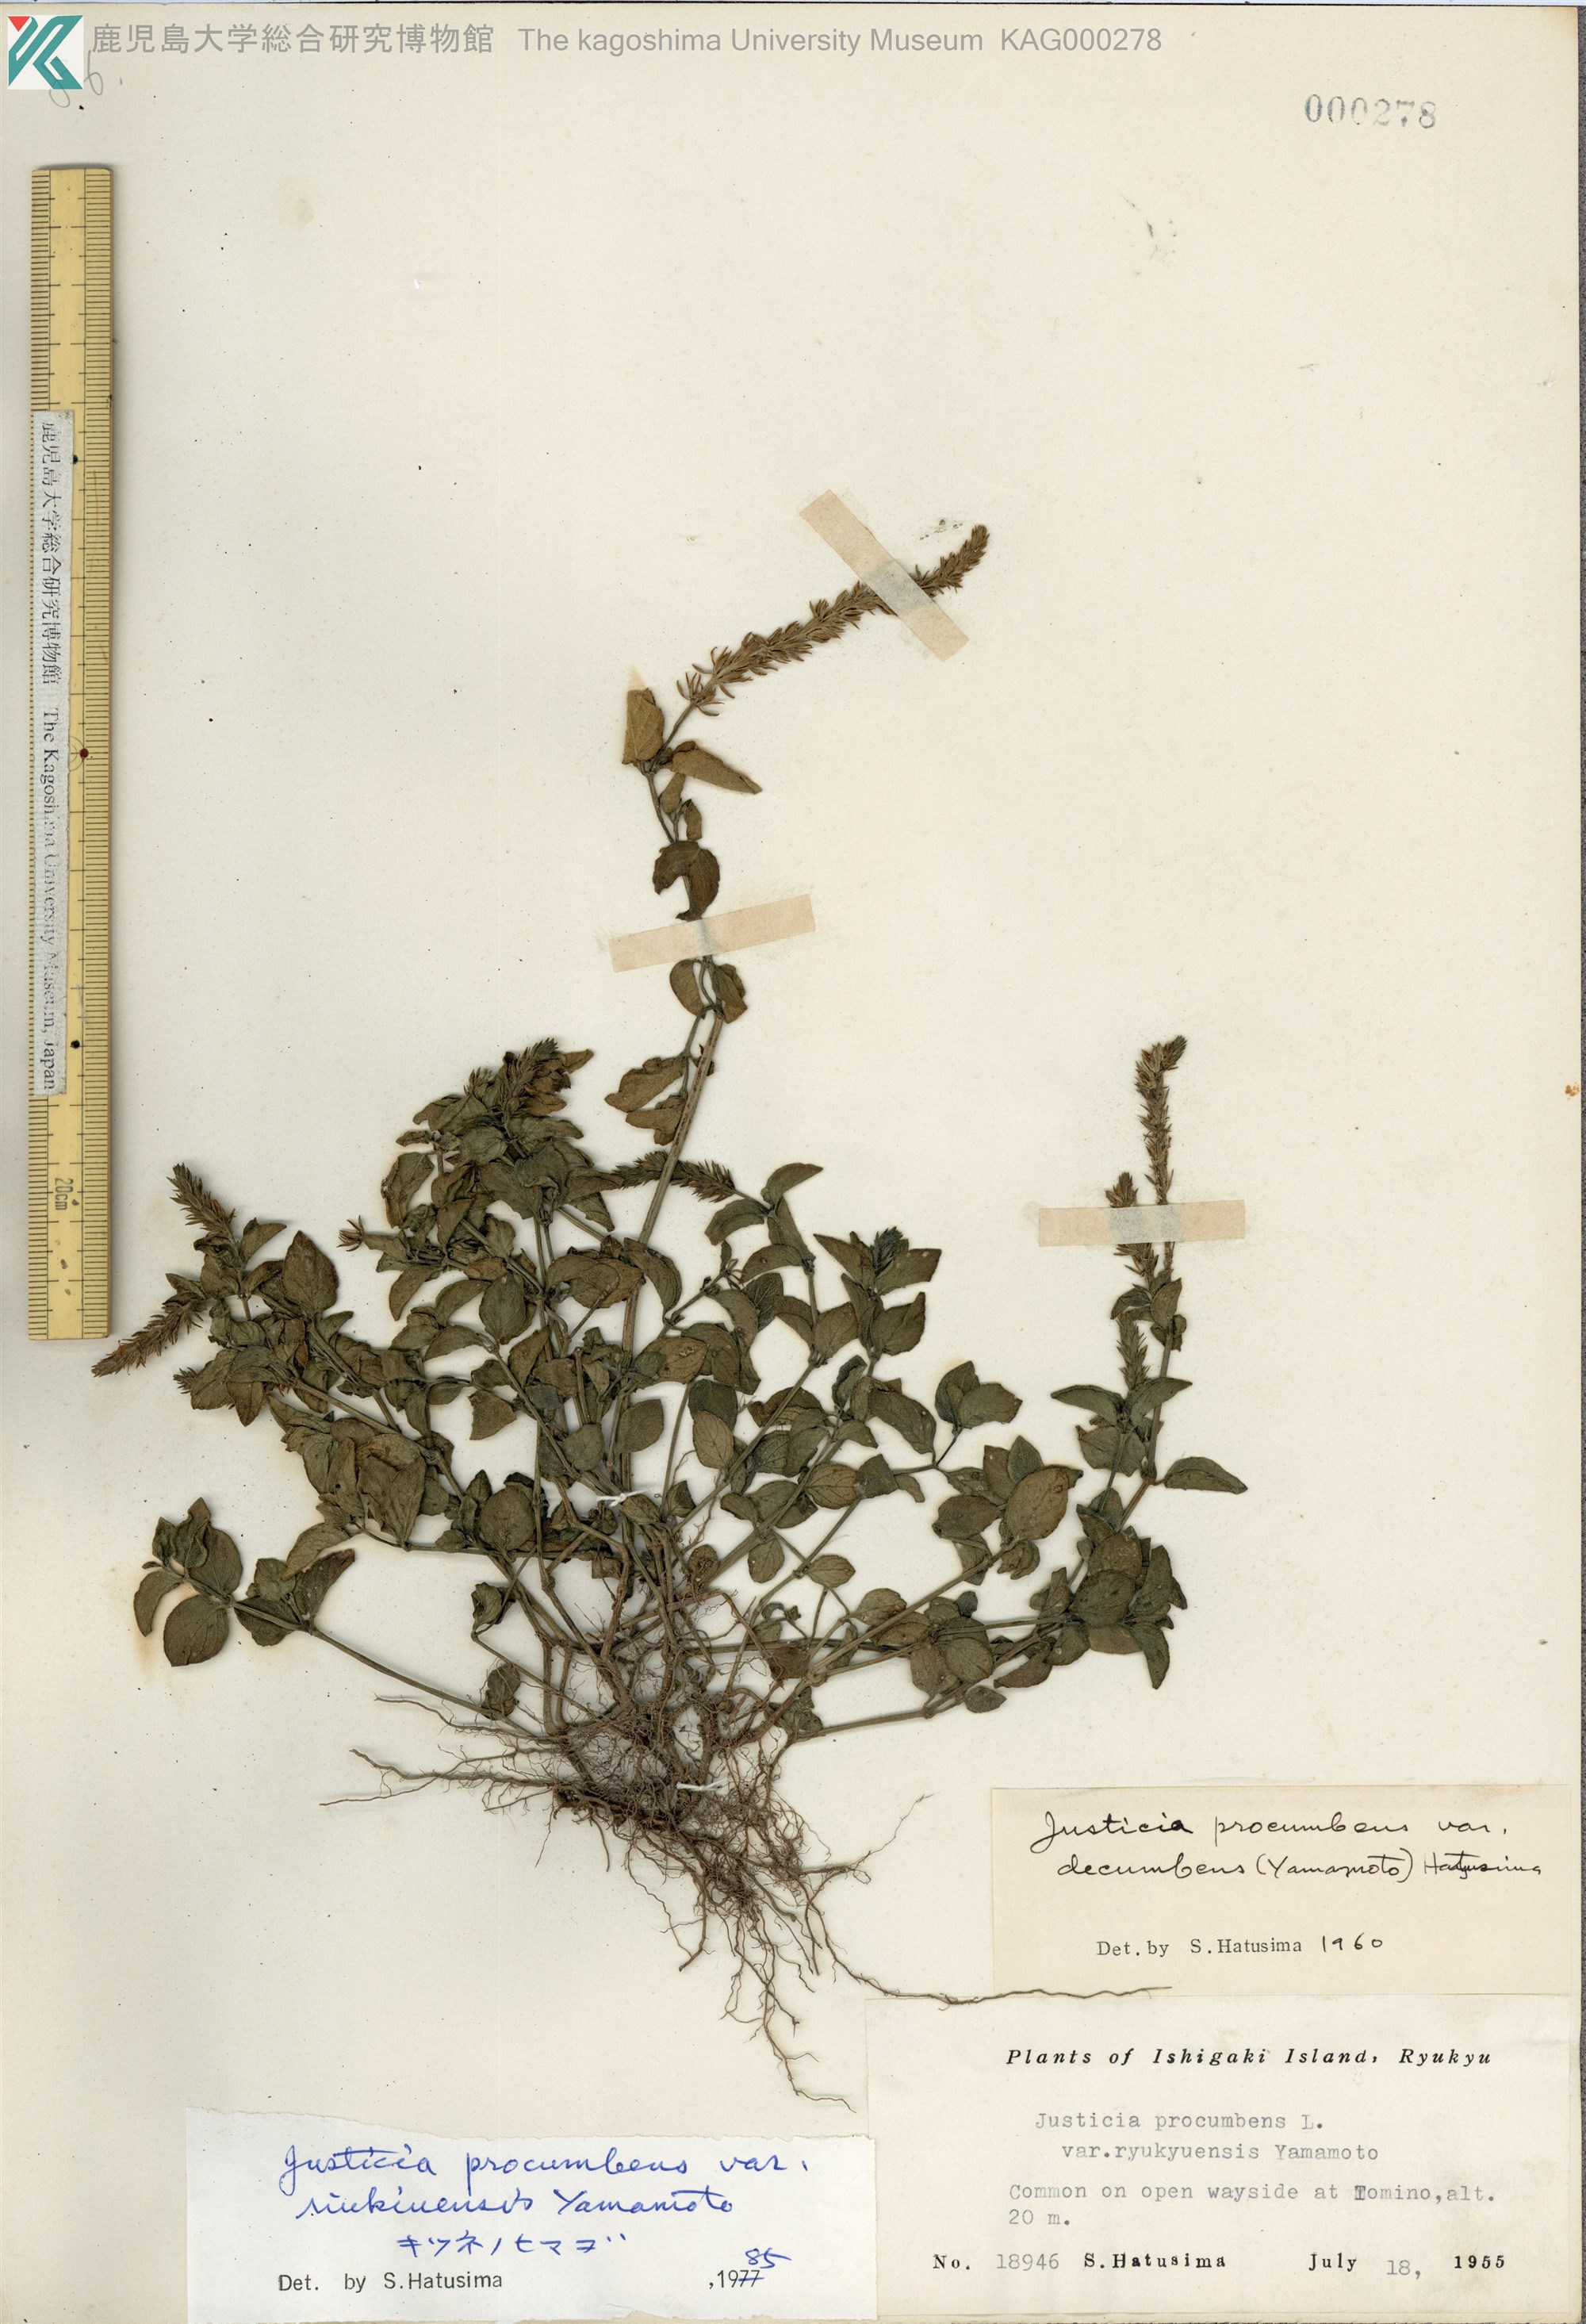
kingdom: Plantae
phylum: Tracheophyta
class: Magnoliopsida
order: Lamiales
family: Acanthaceae
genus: Rostellularia
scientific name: Rostellularia procumbens
